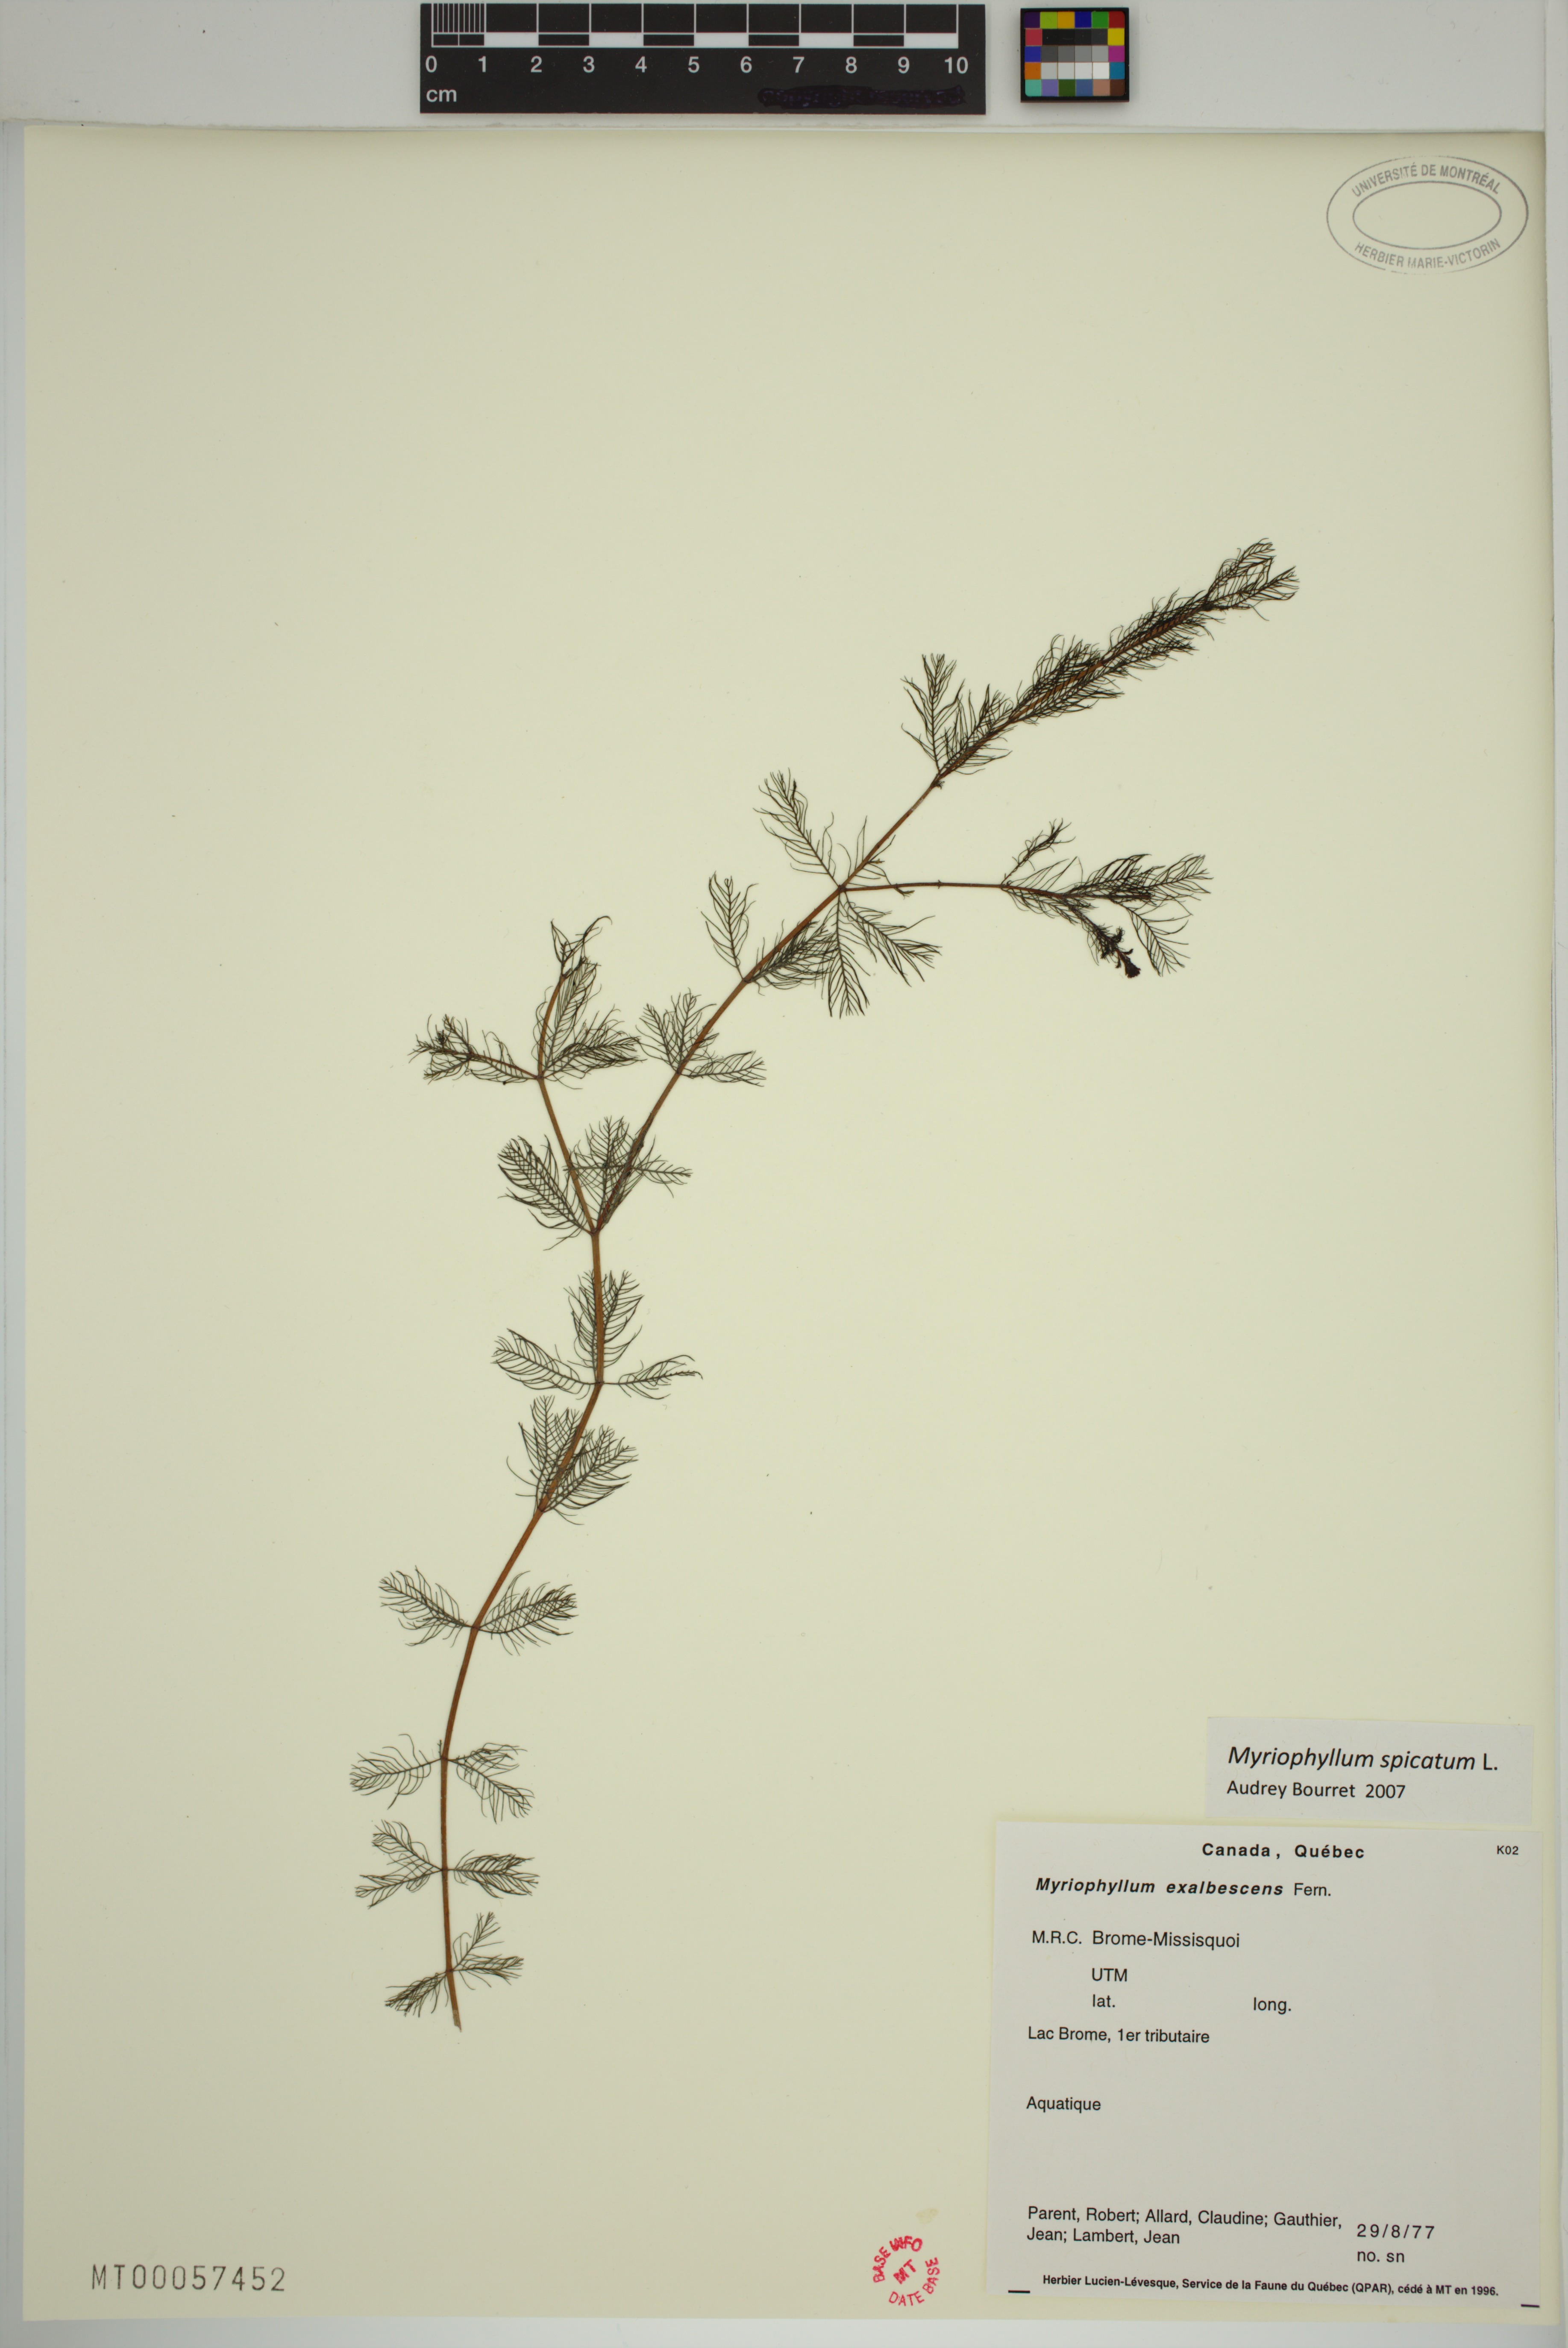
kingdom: Plantae
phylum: Tracheophyta
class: Magnoliopsida
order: Saxifragales
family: Haloragaceae
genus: Myriophyllum
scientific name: Myriophyllum spicatum
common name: Spiked water-milfoil
